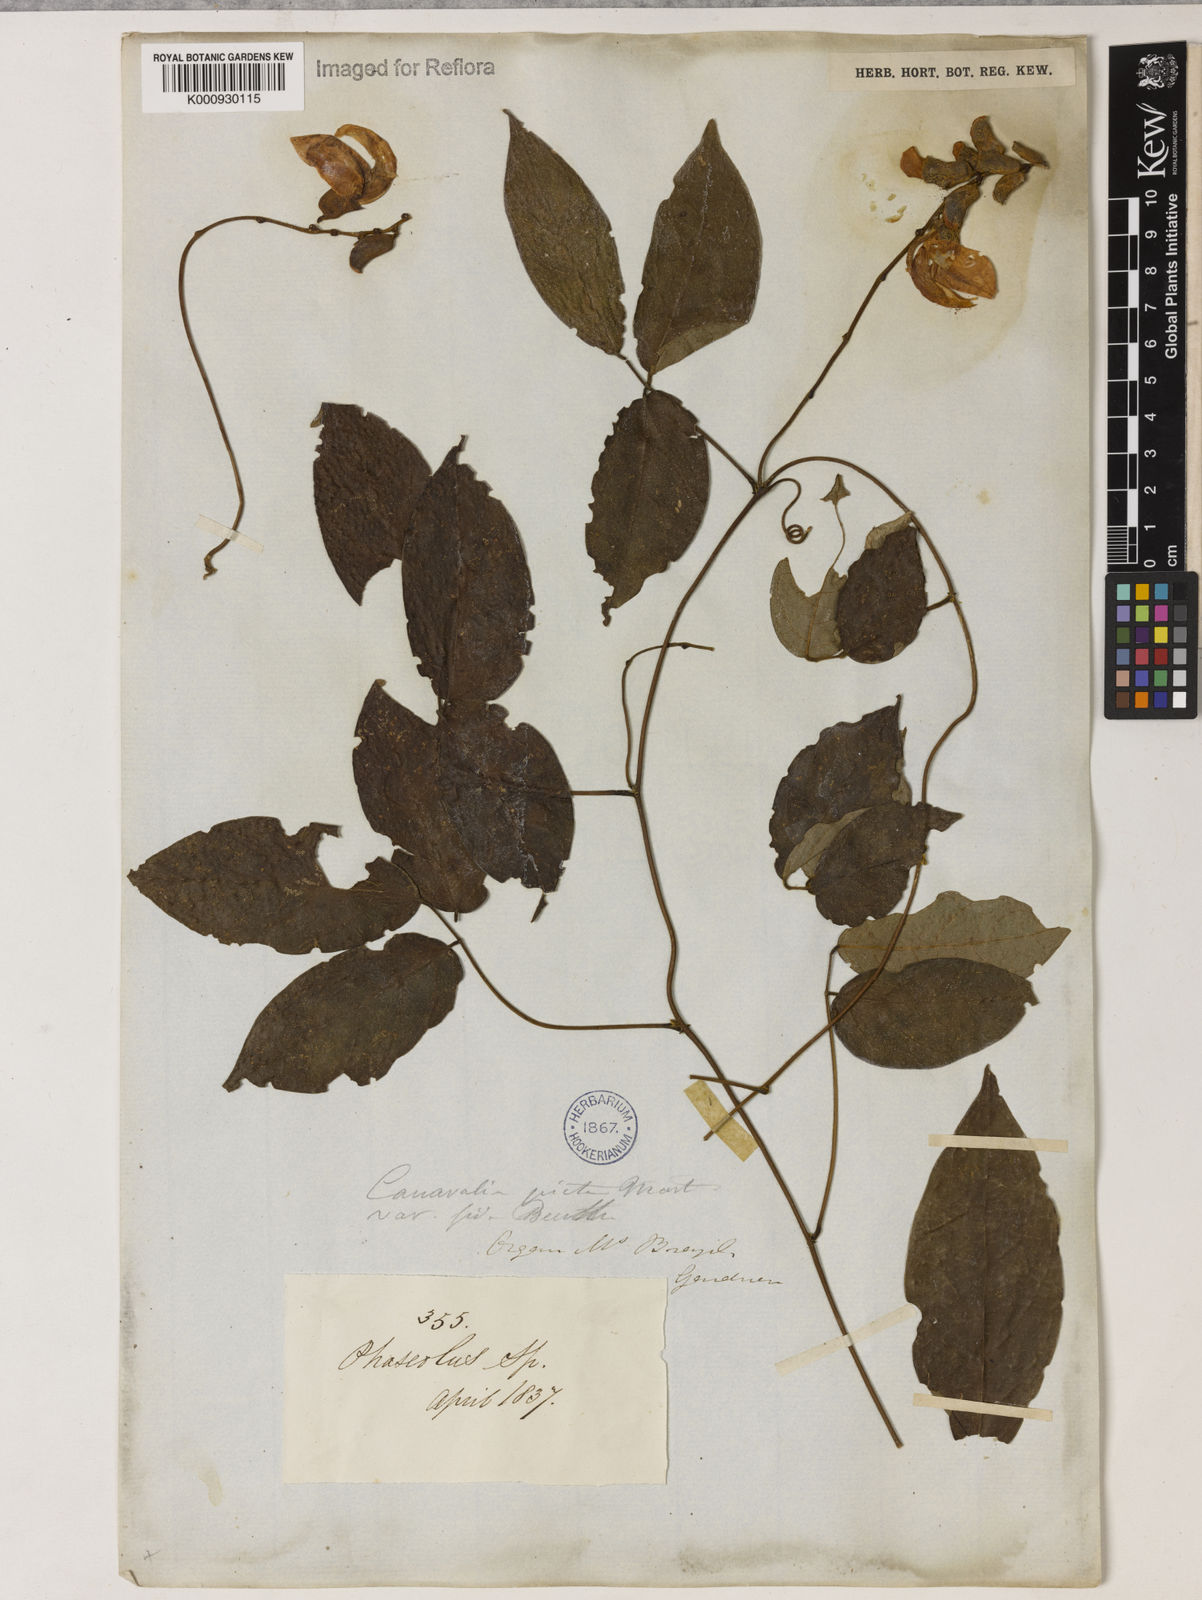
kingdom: Plantae
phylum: Tracheophyta
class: Magnoliopsida
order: Fabales
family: Fabaceae
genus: Canavalia
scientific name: Canavalia picta
